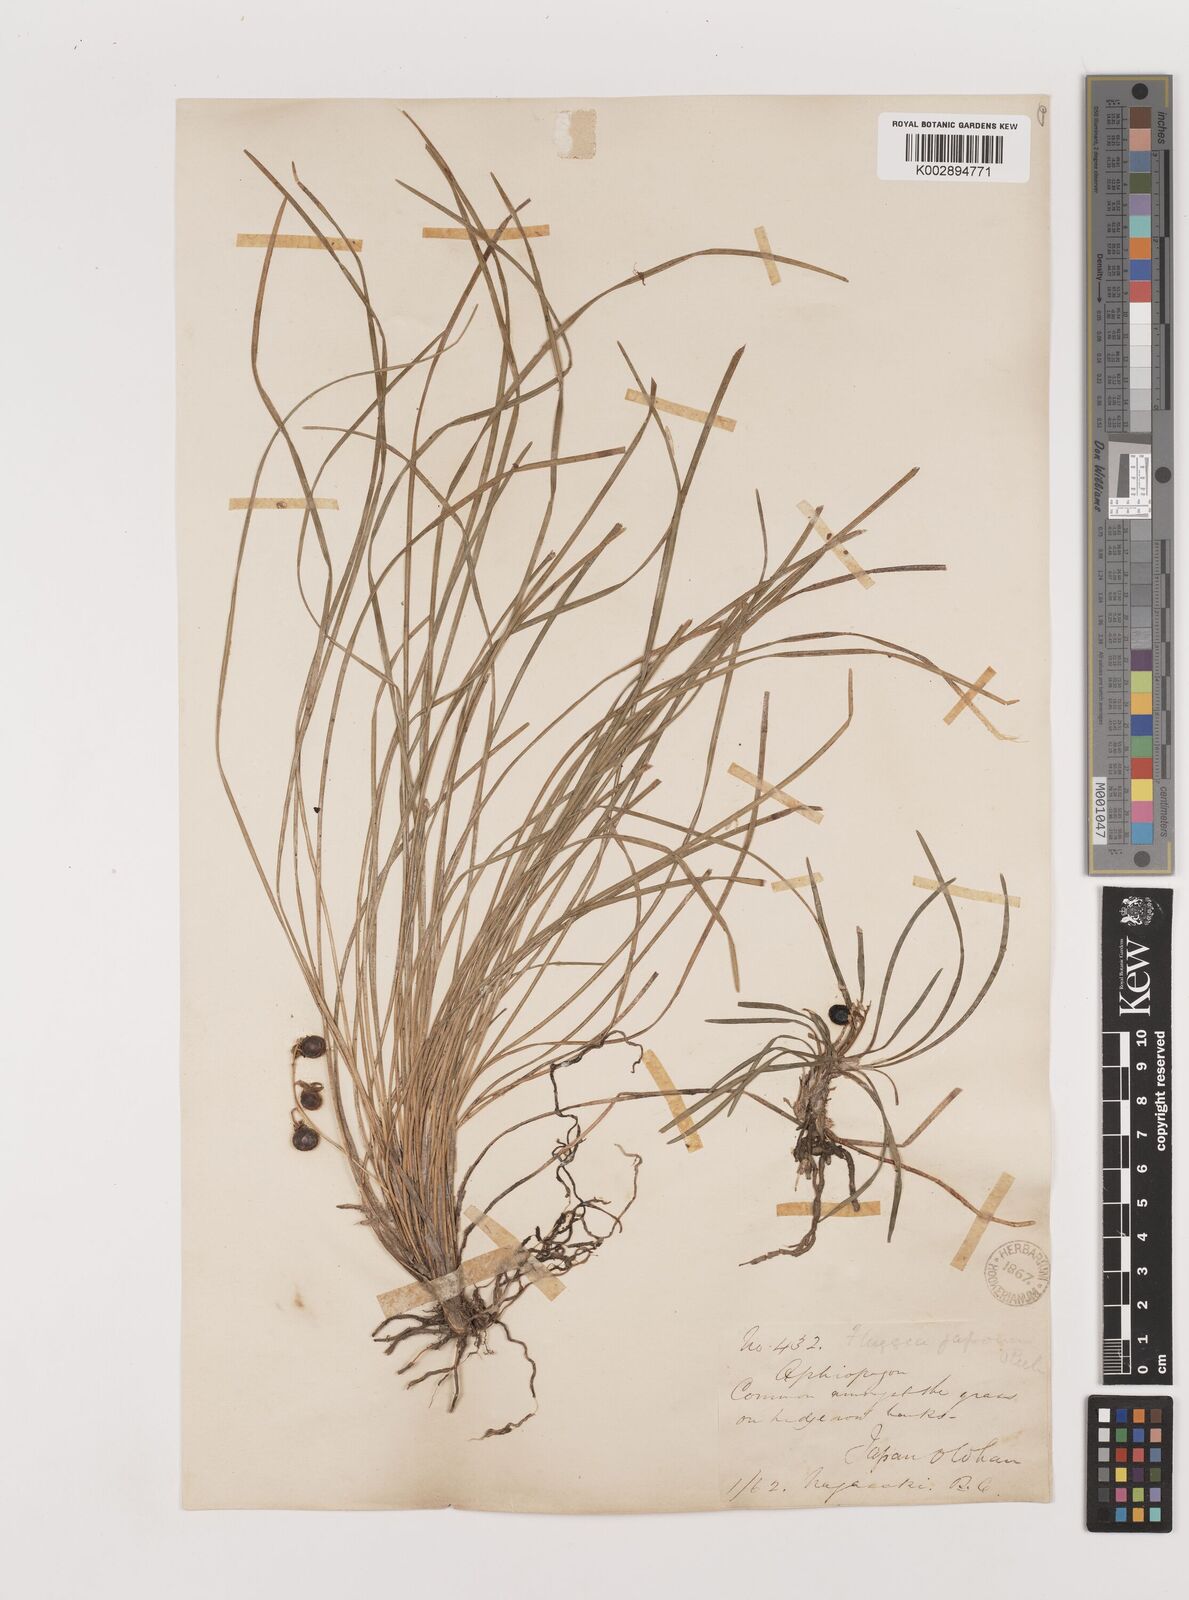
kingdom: Plantae
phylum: Tracheophyta
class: Liliopsida
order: Asparagales
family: Asparagaceae
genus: Ophiopogon
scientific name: Ophiopogon japonicus
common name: Dwarf lilyturf
